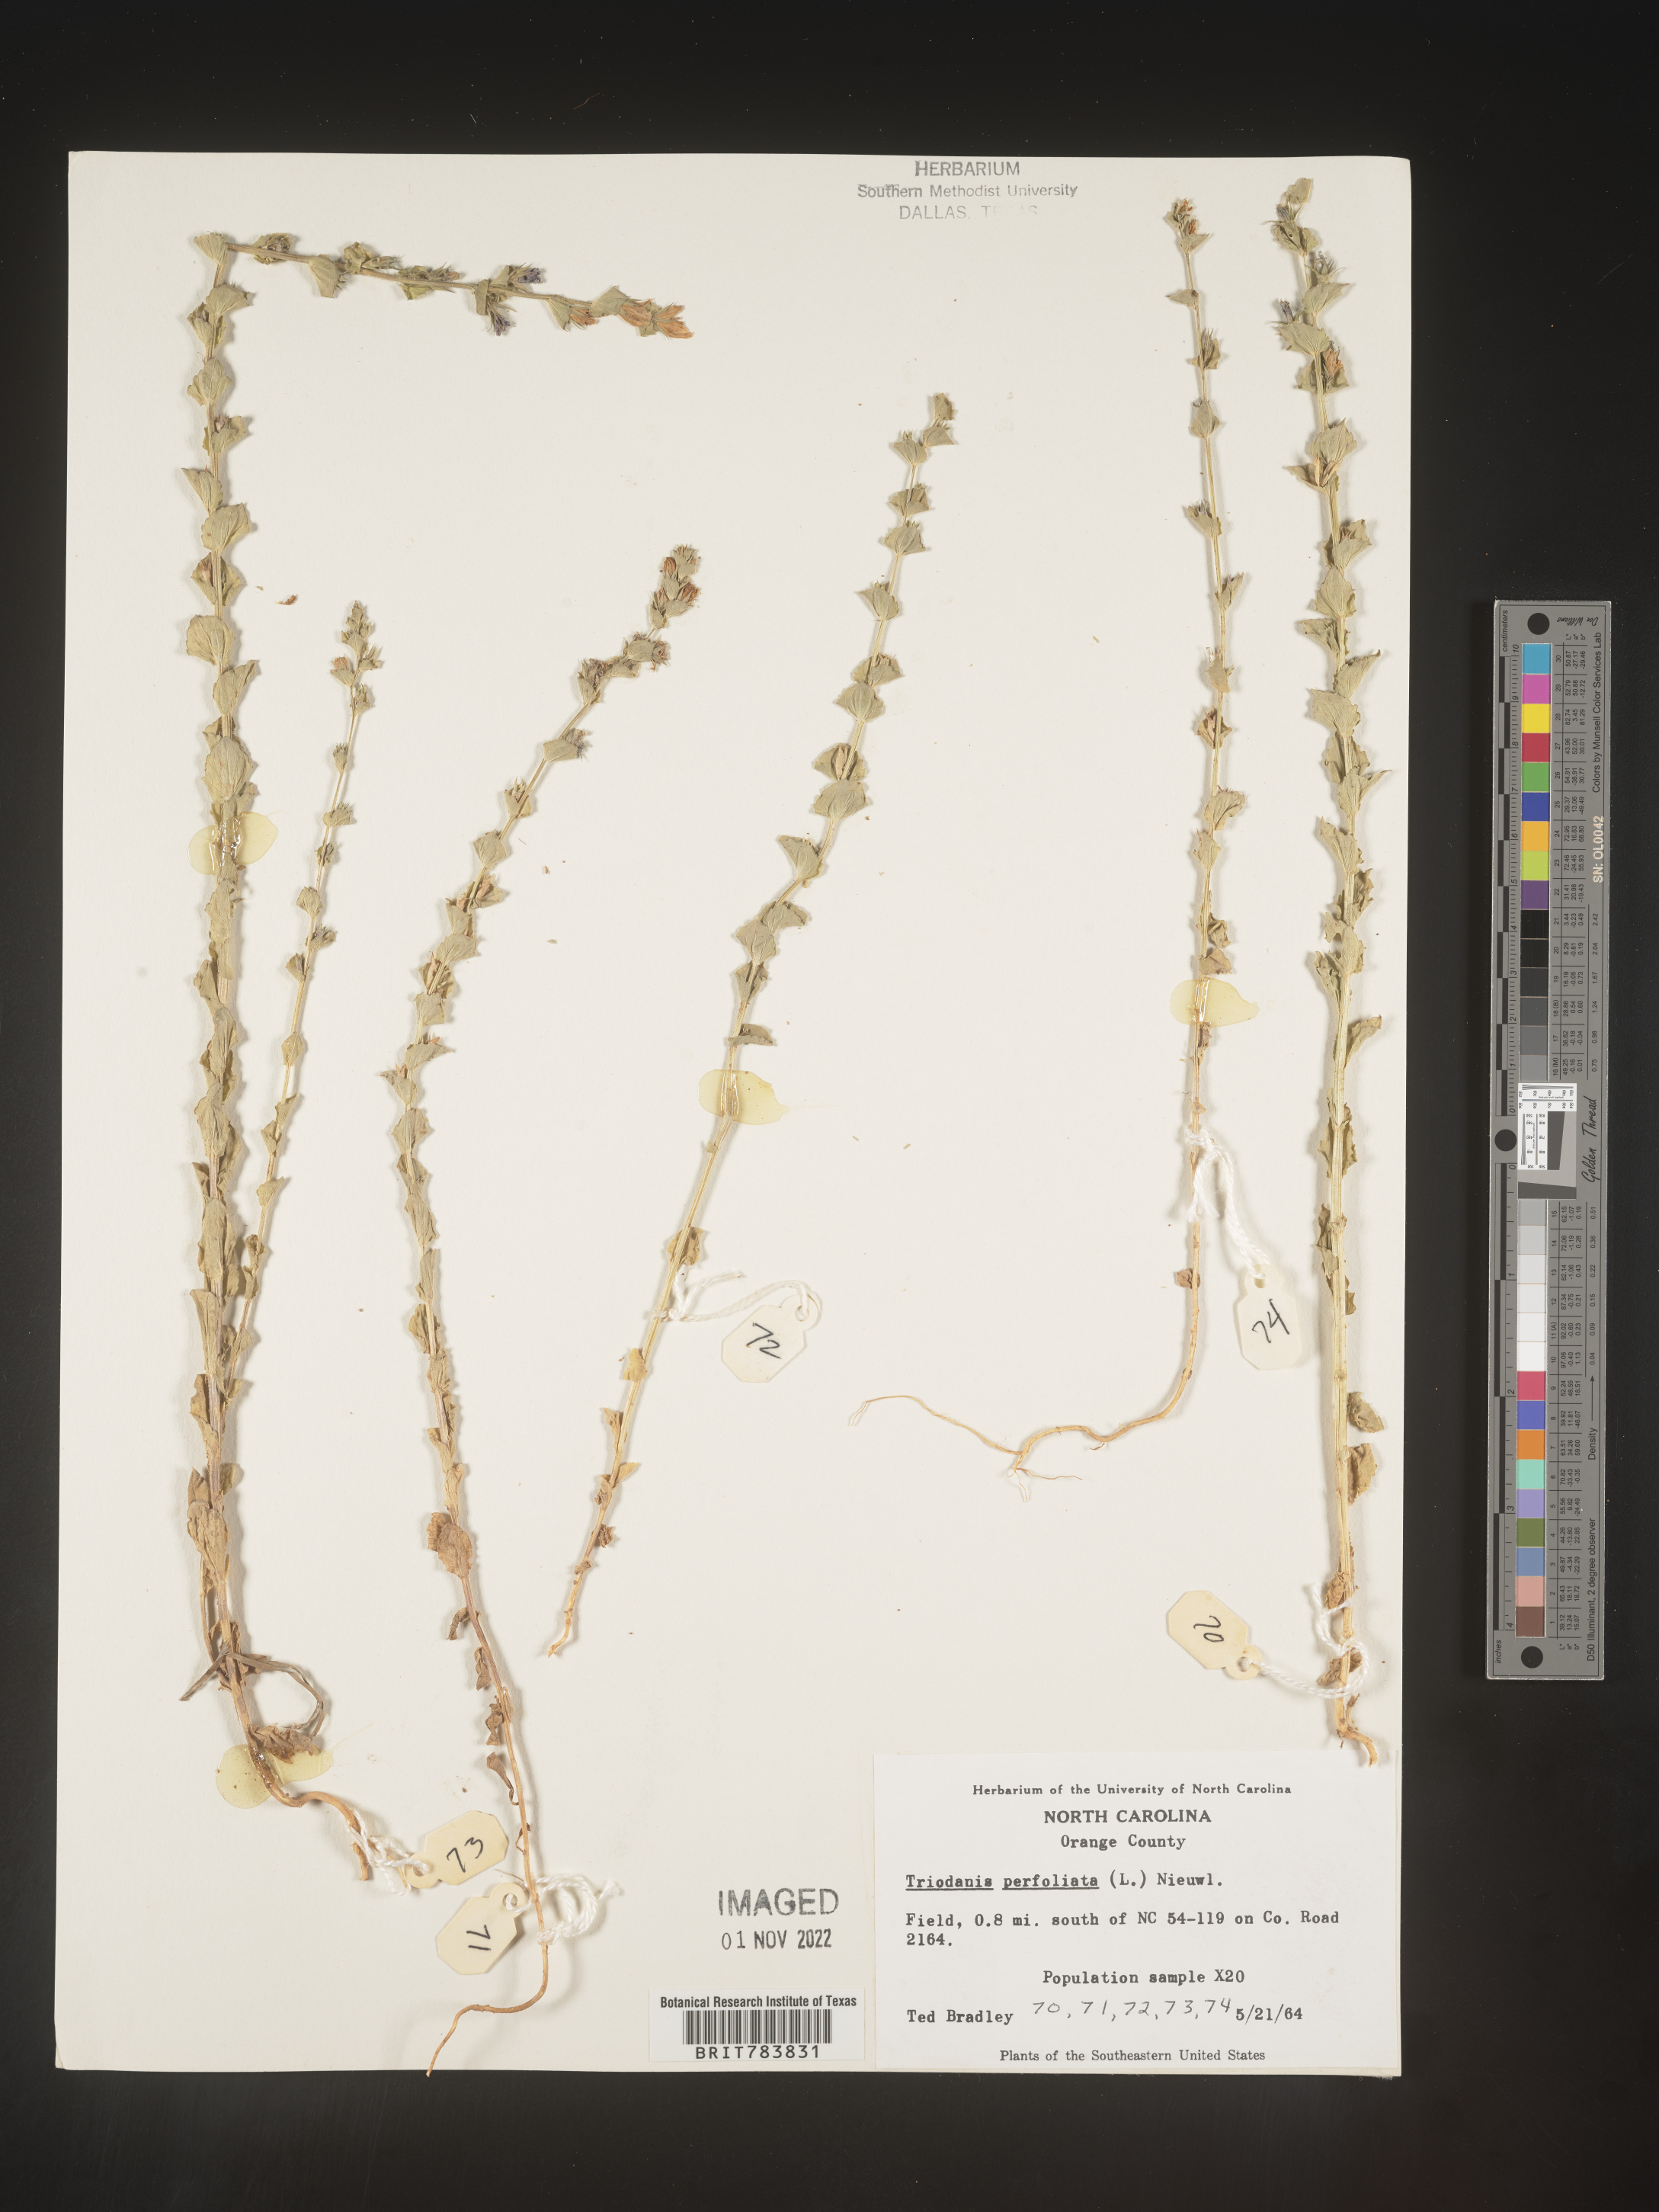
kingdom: Plantae
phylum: Tracheophyta
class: Magnoliopsida
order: Asterales
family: Campanulaceae
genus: Triodanis
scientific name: Triodanis perfoliata
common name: Clasping venus' looking-glass
